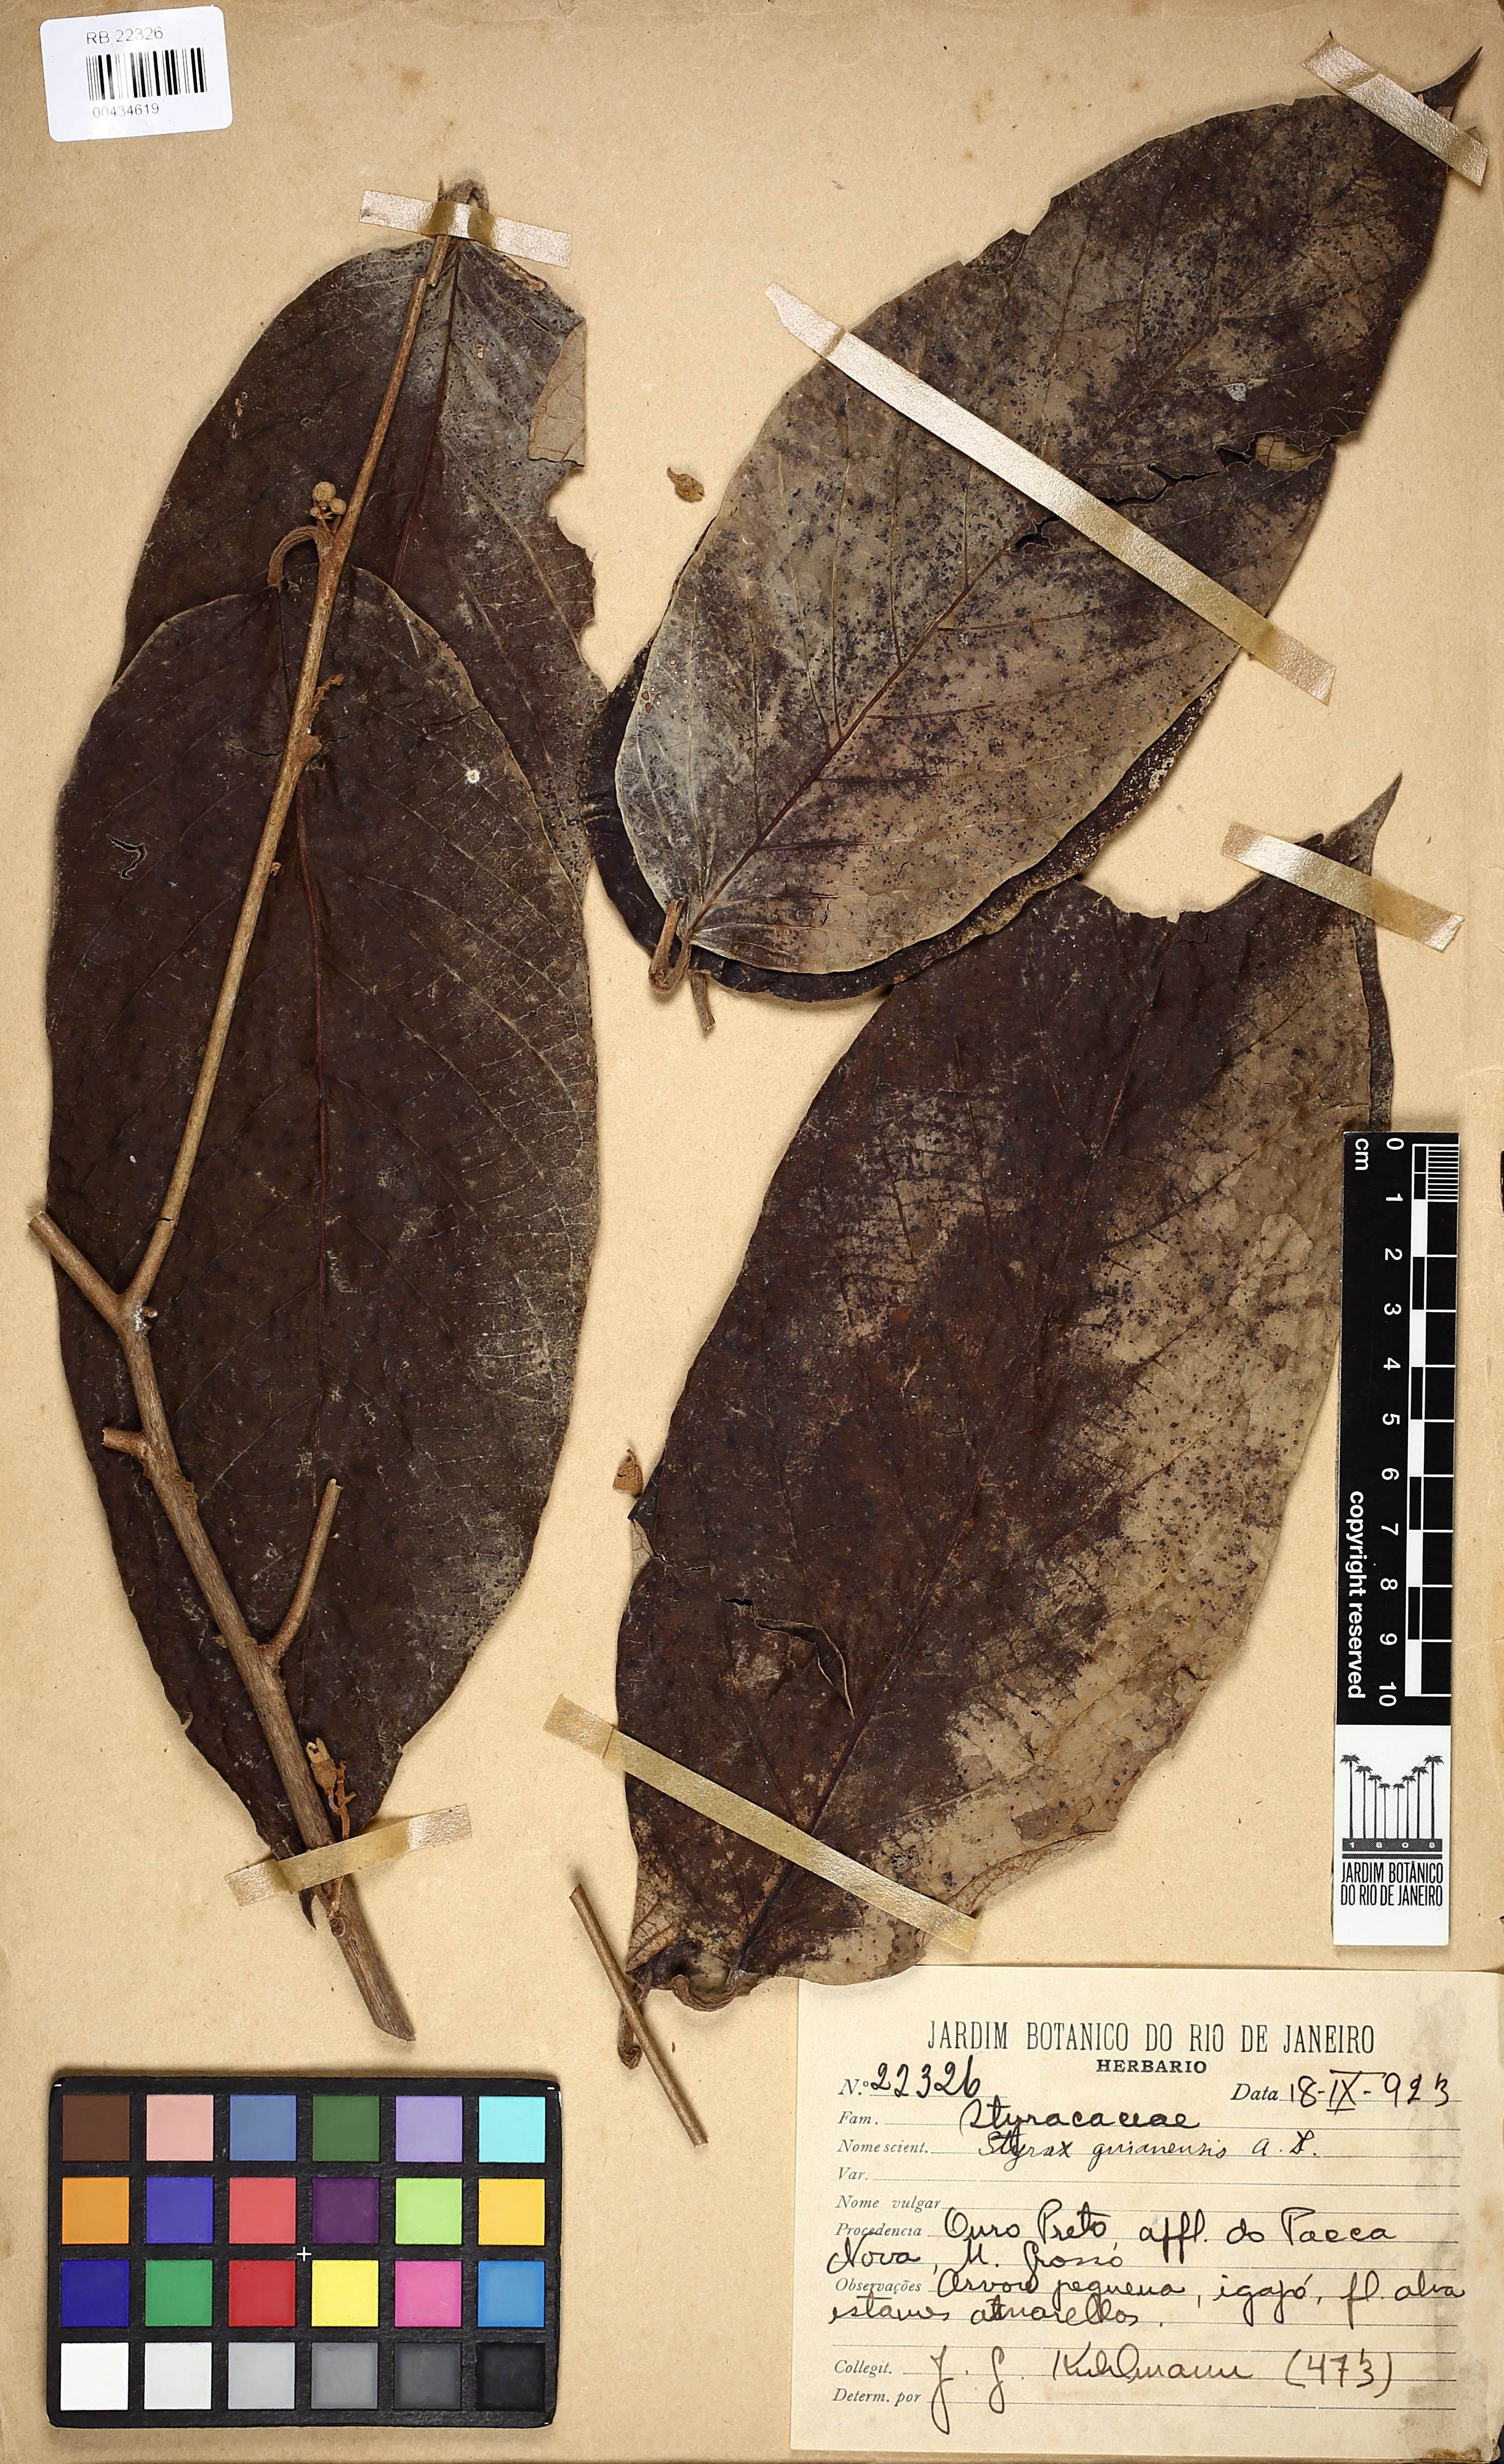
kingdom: Plantae
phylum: Tracheophyta
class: Magnoliopsida
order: Ericales
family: Styracaceae
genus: Styrax
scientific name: Styrax guyanensis
